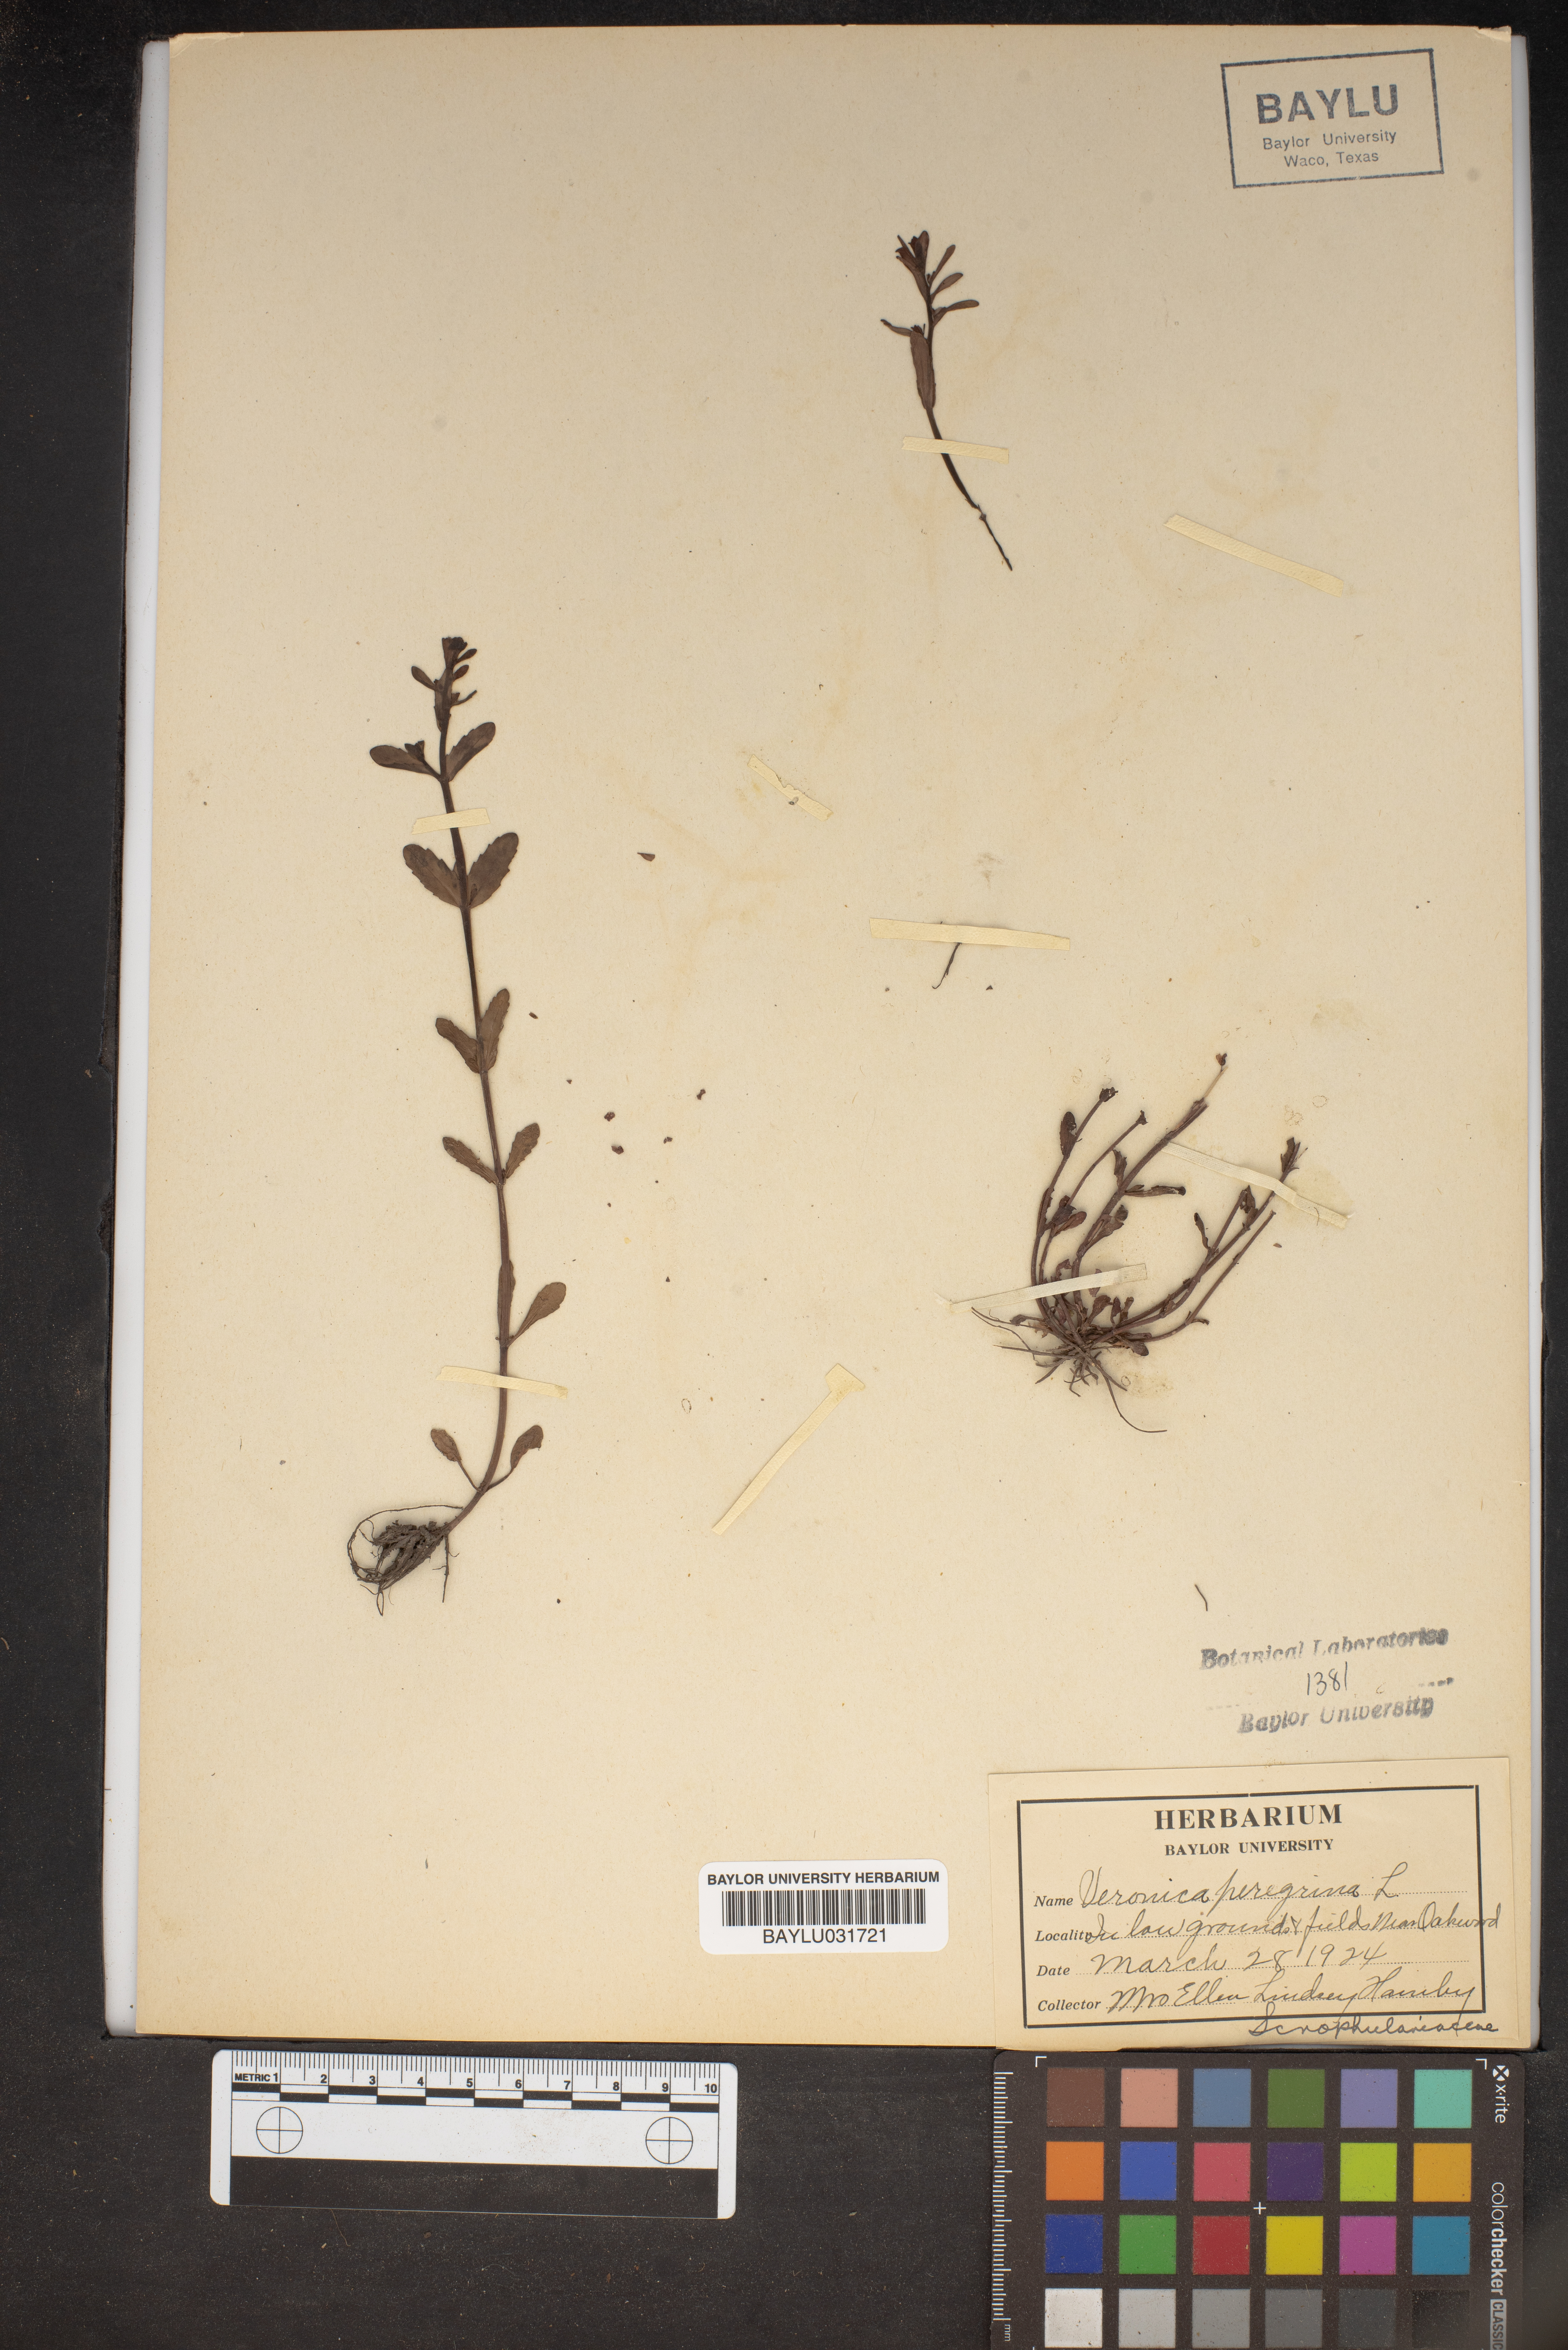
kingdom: Plantae
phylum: Tracheophyta
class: Magnoliopsida
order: Lamiales
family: Plantaginaceae
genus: Veronica
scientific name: Veronica peregrina
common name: Neckweed
